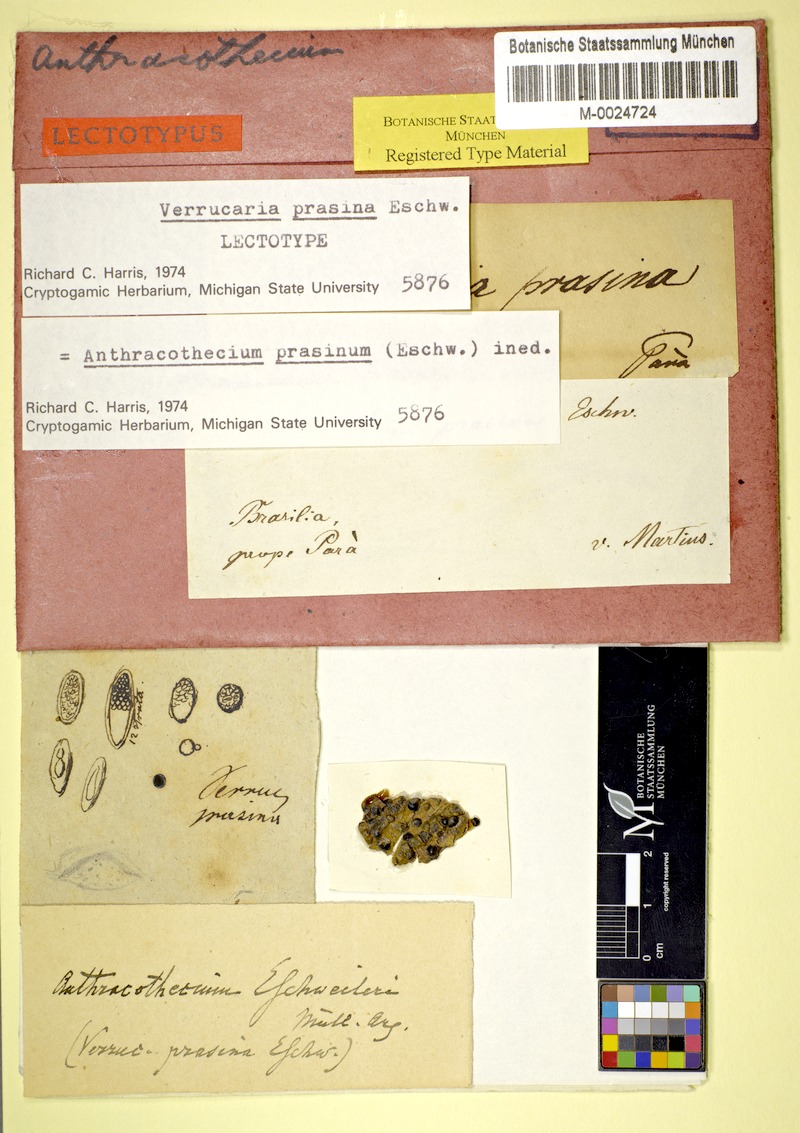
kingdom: Fungi
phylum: Ascomycota
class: Eurotiomycetes
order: Pyrenulales
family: Pyrenulaceae
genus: Anthracothecium
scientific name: Anthracothecium prasinum
